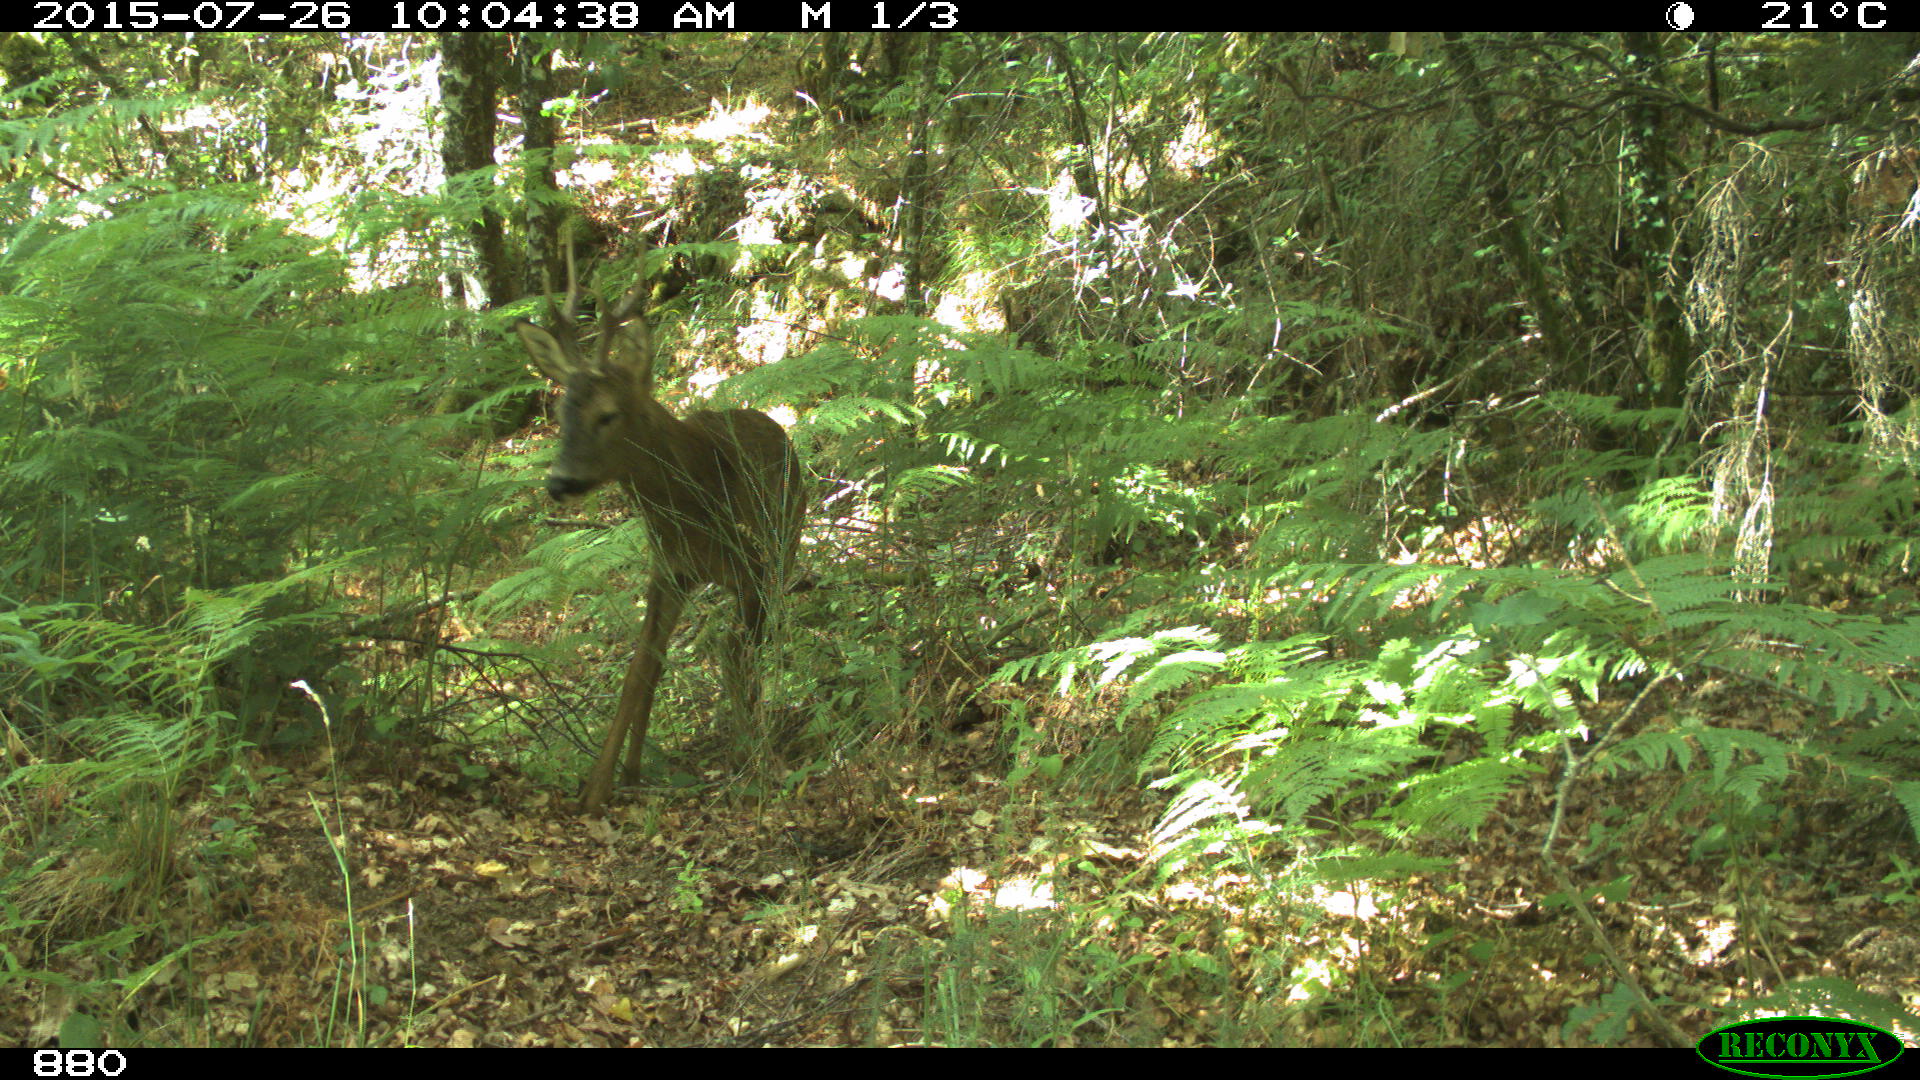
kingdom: Animalia
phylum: Chordata
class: Mammalia
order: Artiodactyla
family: Cervidae
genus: Capreolus
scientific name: Capreolus capreolus
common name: Western roe deer
